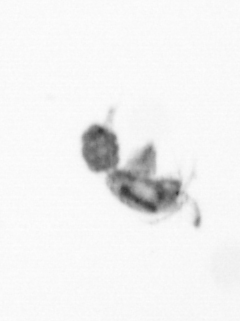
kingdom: Animalia
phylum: Arthropoda
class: Copepoda
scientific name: Copepoda
